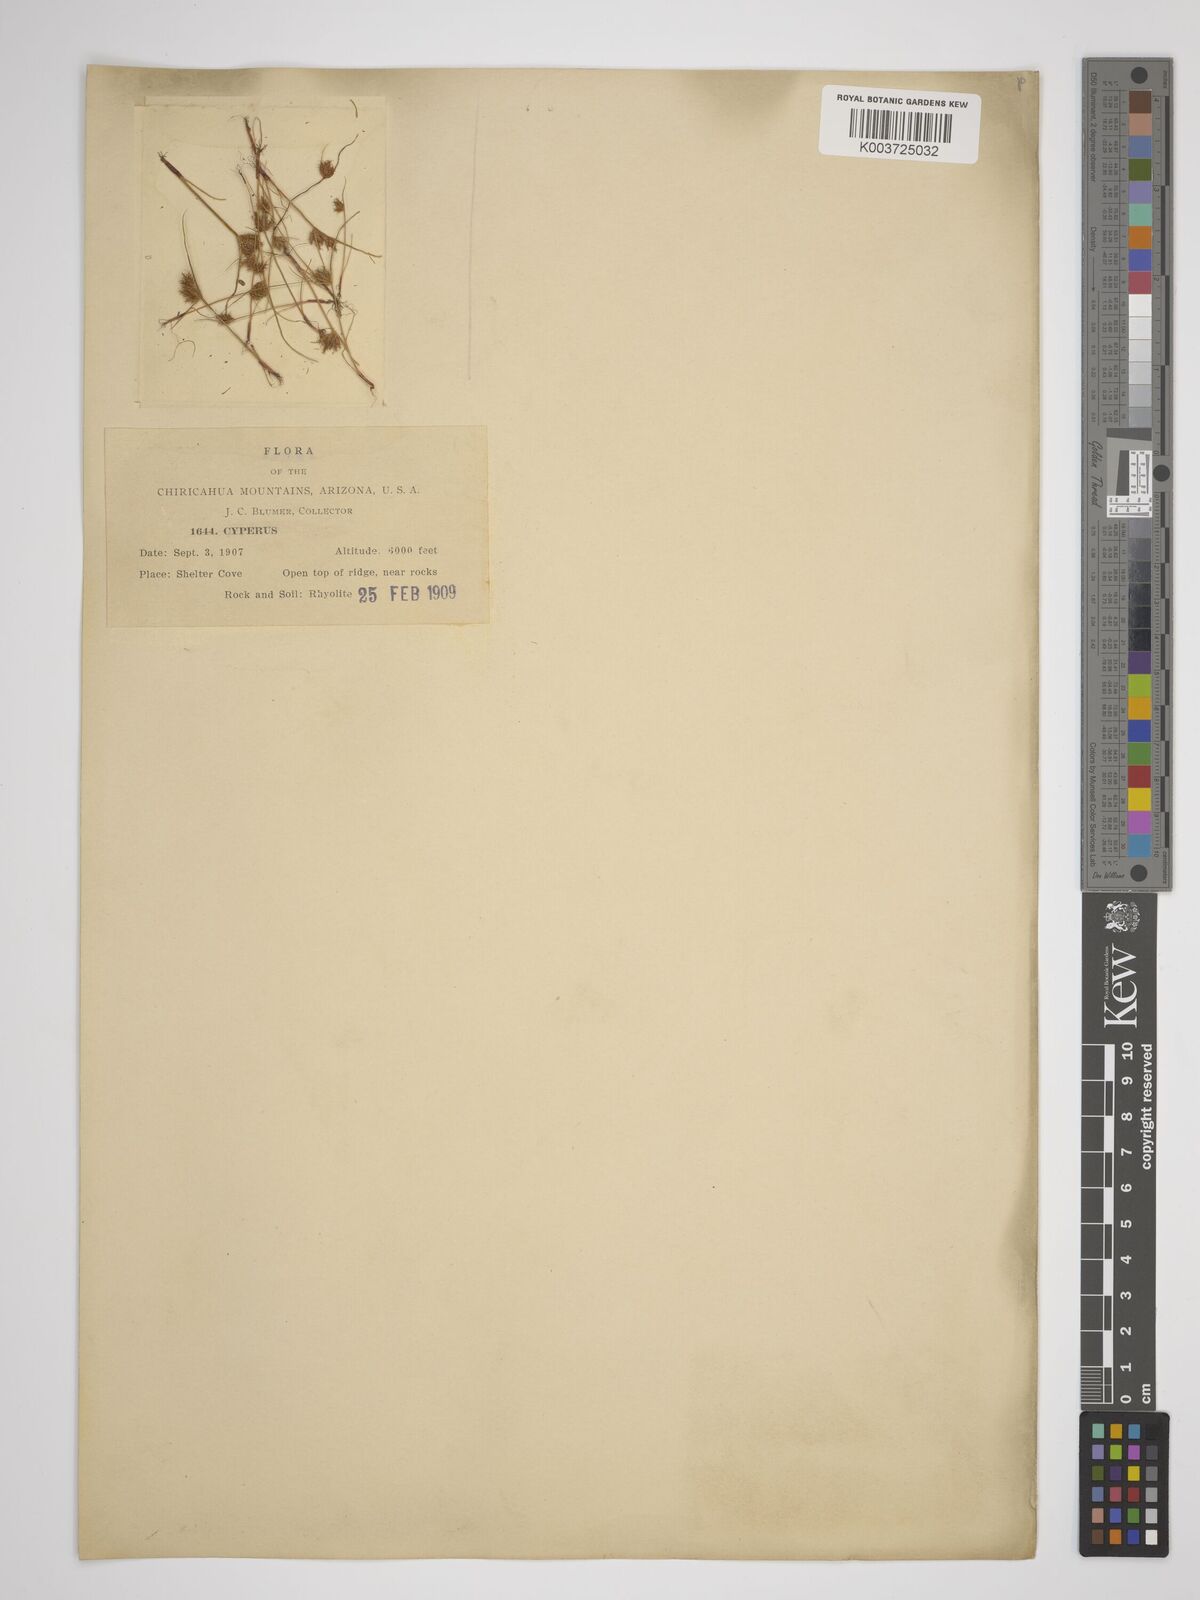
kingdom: Plantae
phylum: Tracheophyta
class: Liliopsida
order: Poales
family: Cyperaceae
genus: Cyperus
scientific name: Cyperus
